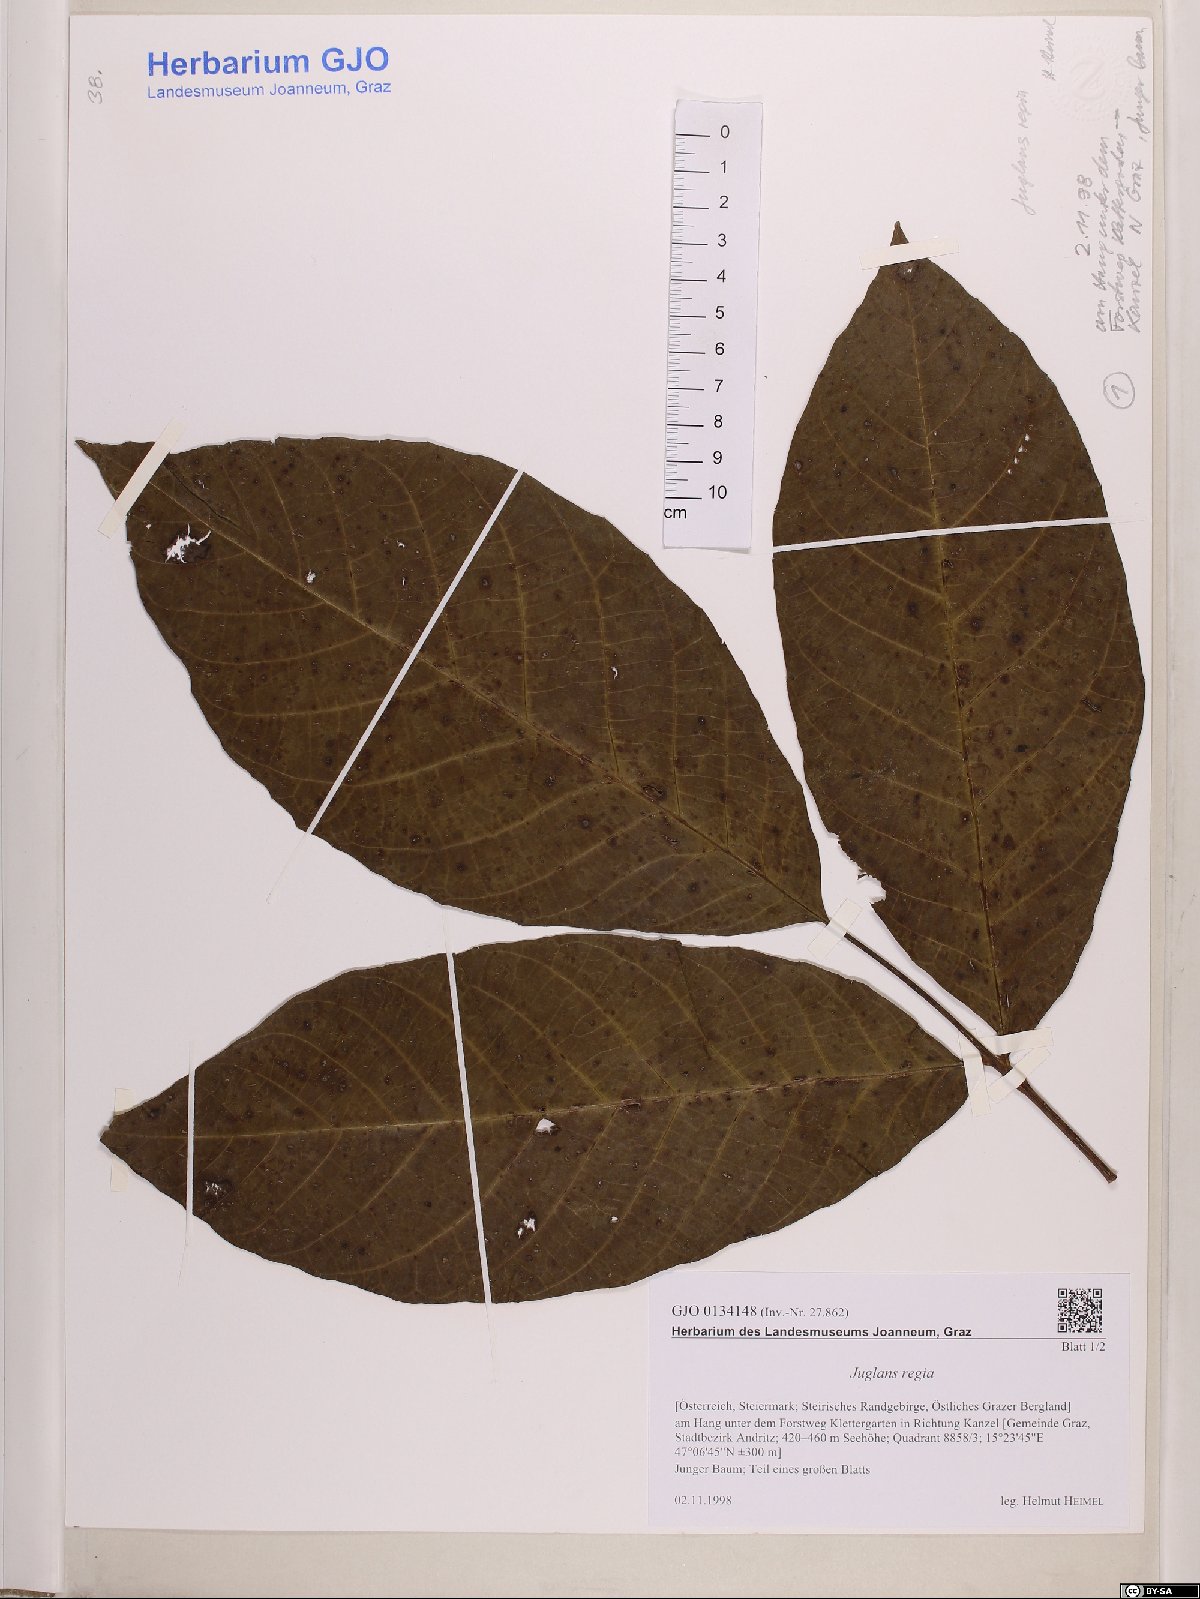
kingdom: Plantae
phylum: Tracheophyta
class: Magnoliopsida
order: Fagales
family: Juglandaceae
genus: Juglans
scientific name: Juglans regia
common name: Walnut
